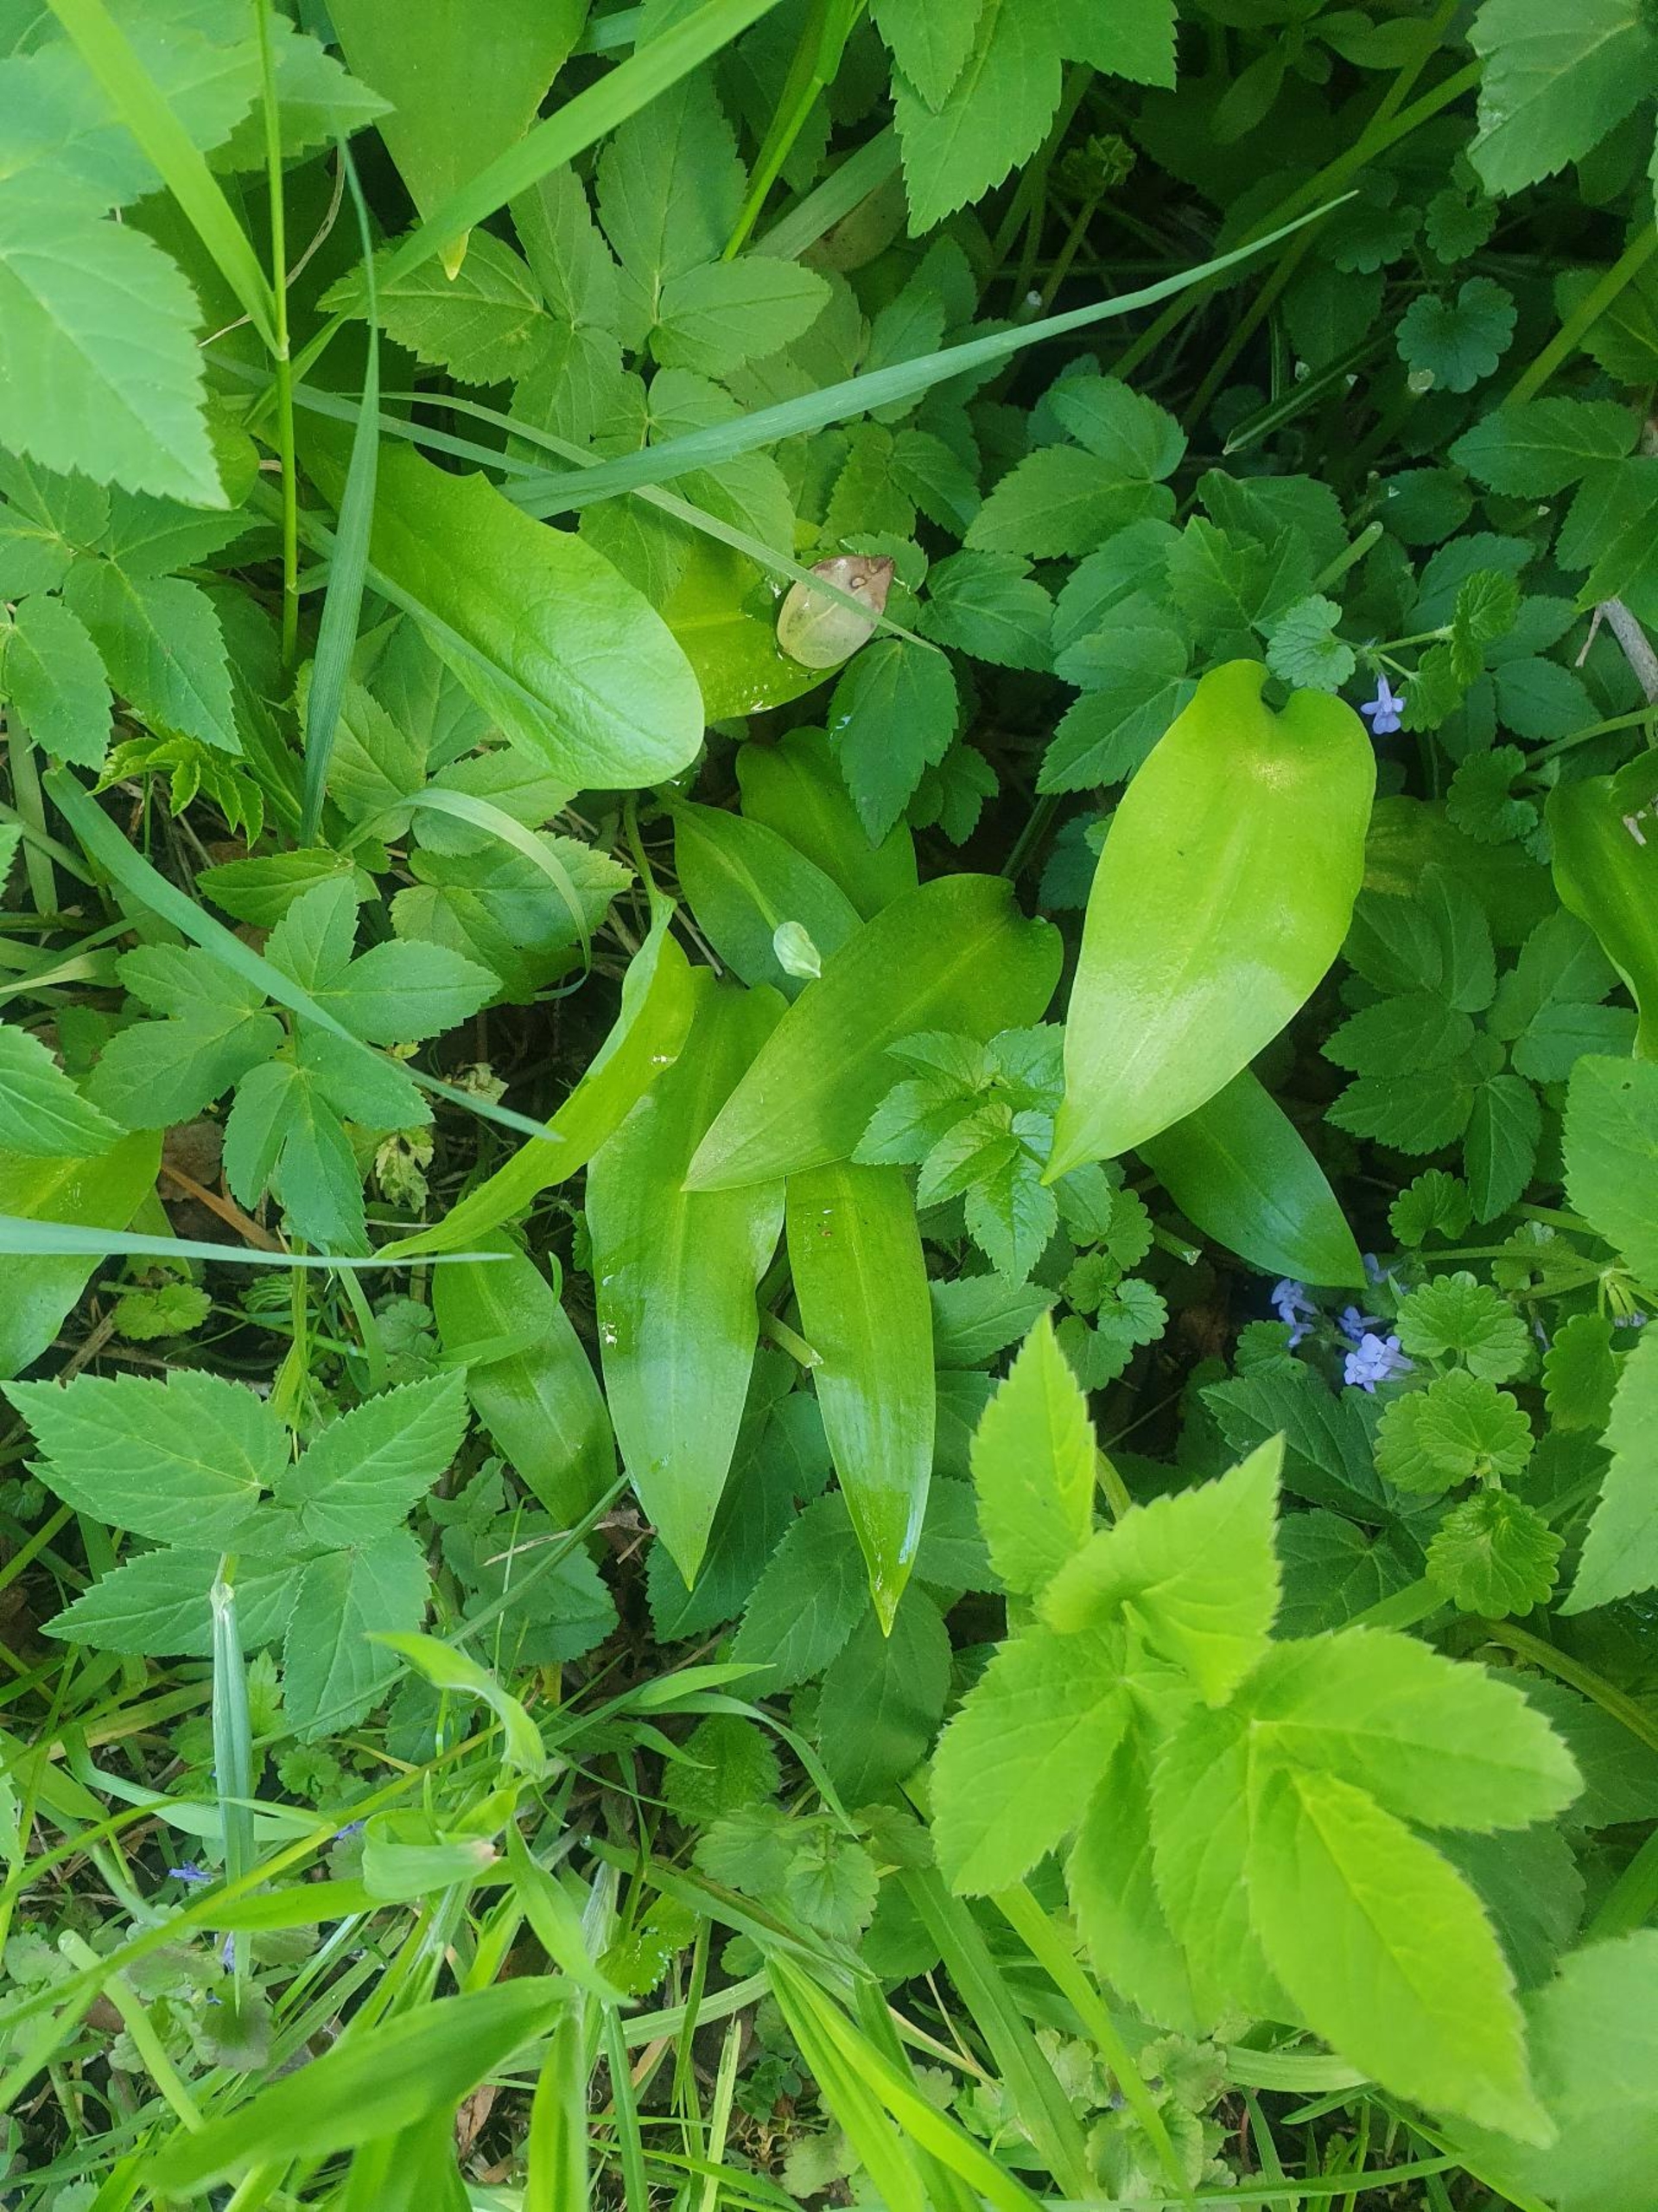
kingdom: Plantae
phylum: Tracheophyta
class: Liliopsida
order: Asparagales
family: Amaryllidaceae
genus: Allium
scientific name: Allium ursinum
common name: Rams-løg
